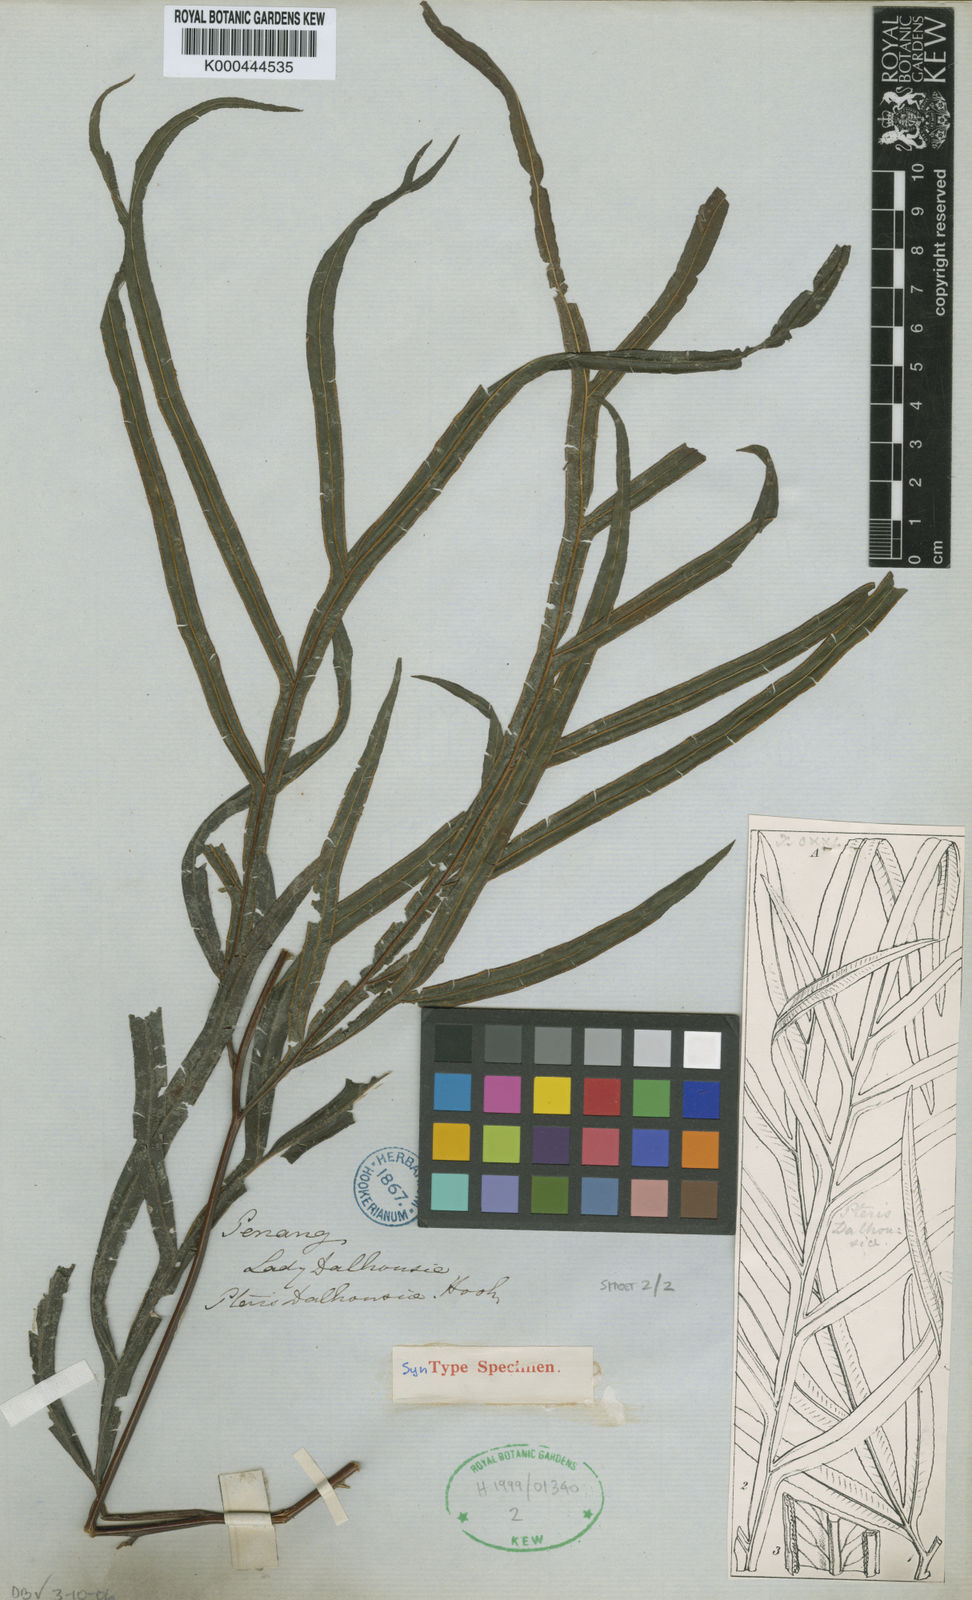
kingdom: Plantae
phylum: Tracheophyta
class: Polypodiopsida
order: Polypodiales
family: Pteridaceae
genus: Pteris
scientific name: Pteris dalhousieae
